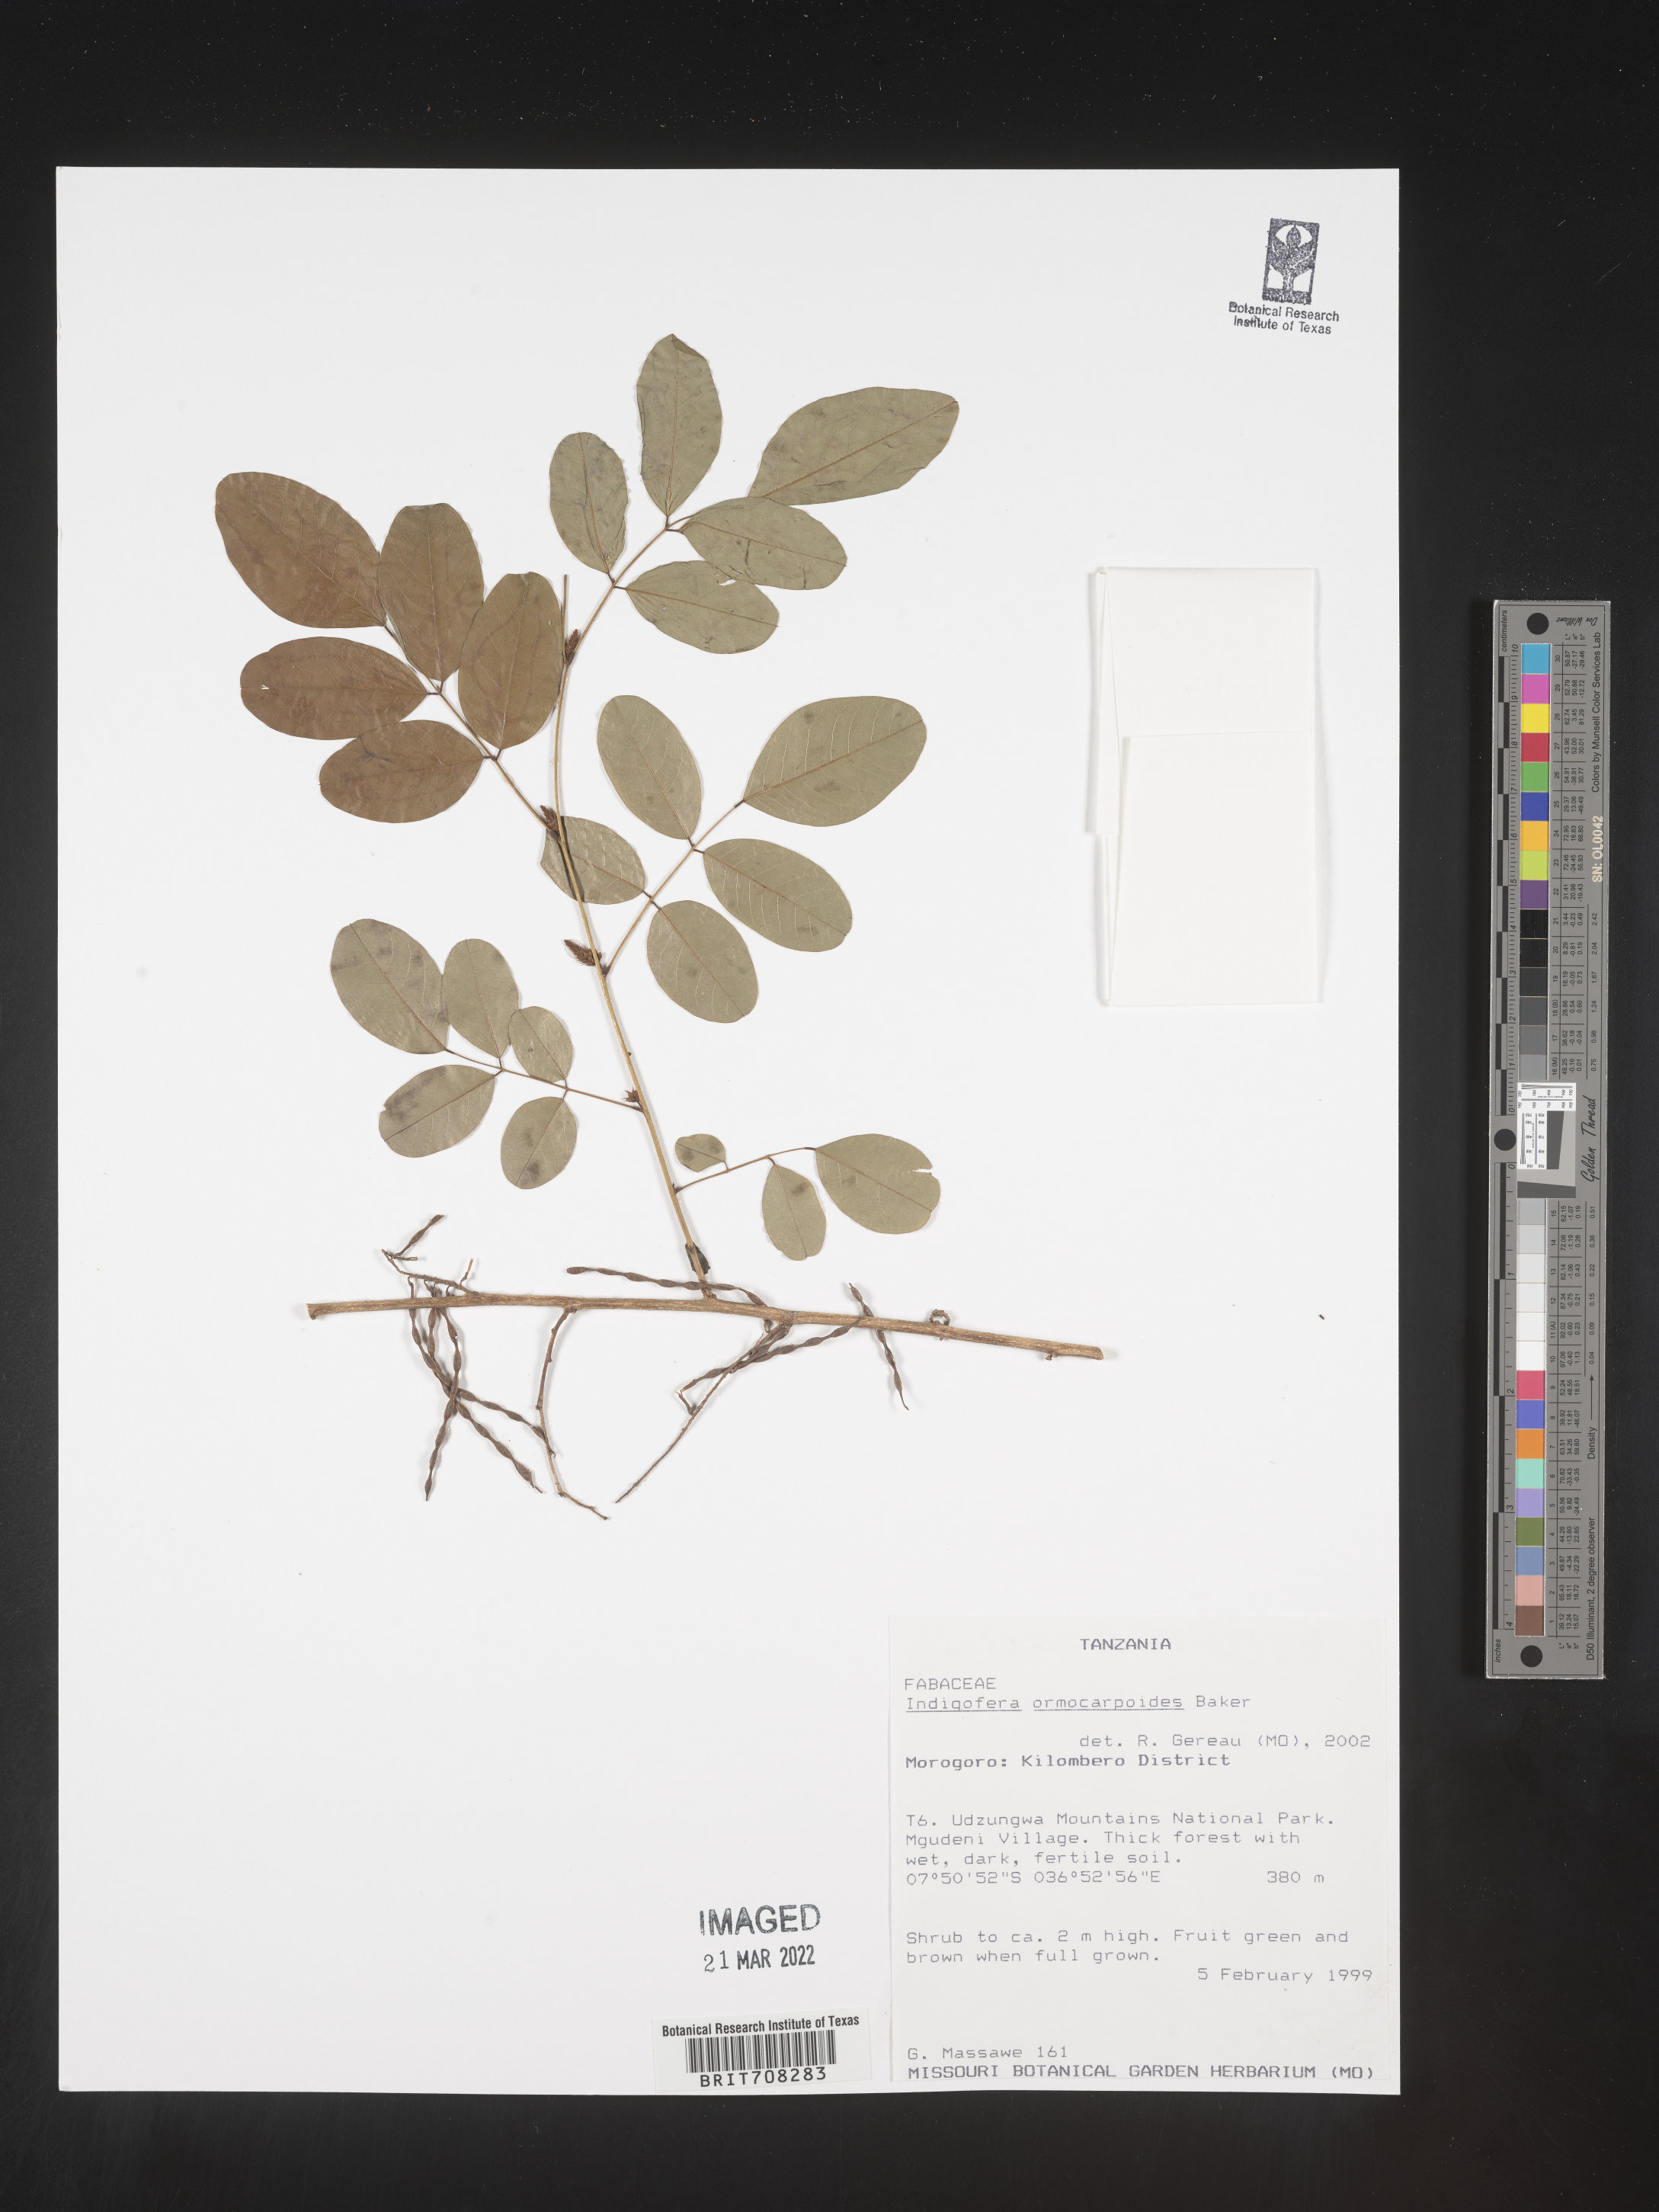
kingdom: Plantae
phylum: Tracheophyta
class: Magnoliopsida
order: Fabales
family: Fabaceae
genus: Indigofera
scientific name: Indigofera
